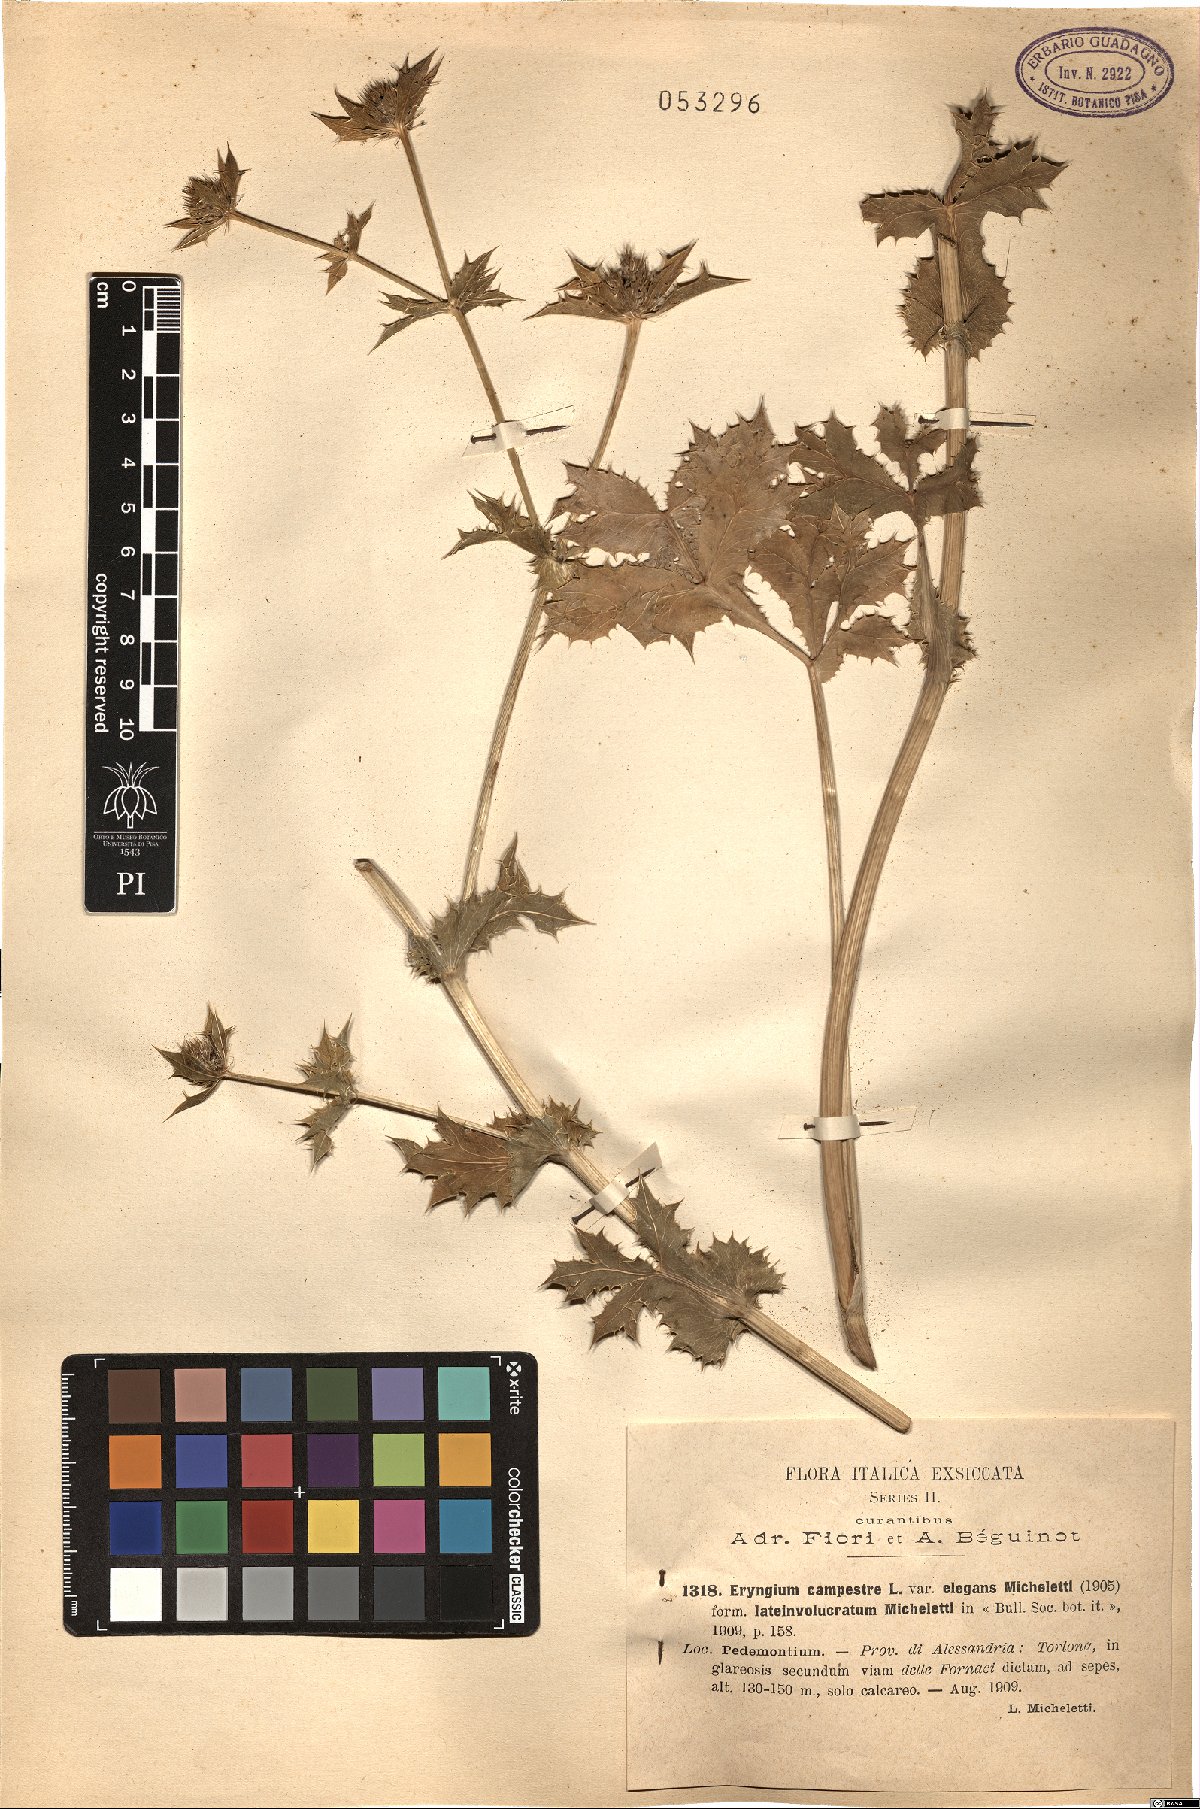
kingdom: Plantae
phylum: Tracheophyta
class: Magnoliopsida
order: Apiales
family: Apiaceae
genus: Eryngium
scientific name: Eryngium campestre
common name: Field eryngo
